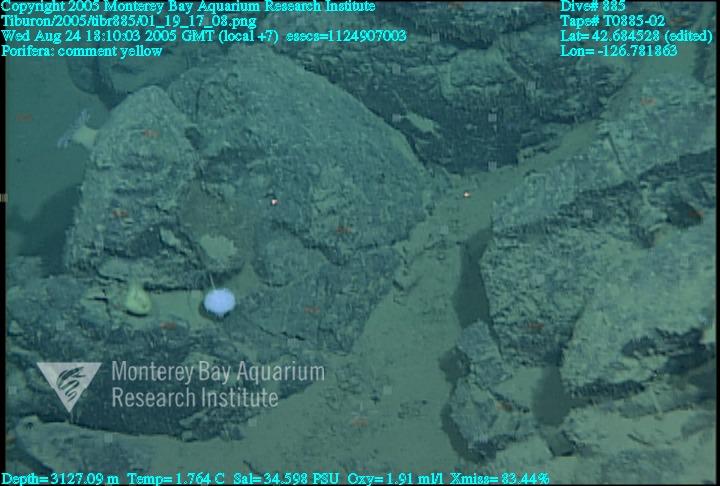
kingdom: Animalia
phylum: Porifera
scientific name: Porifera
